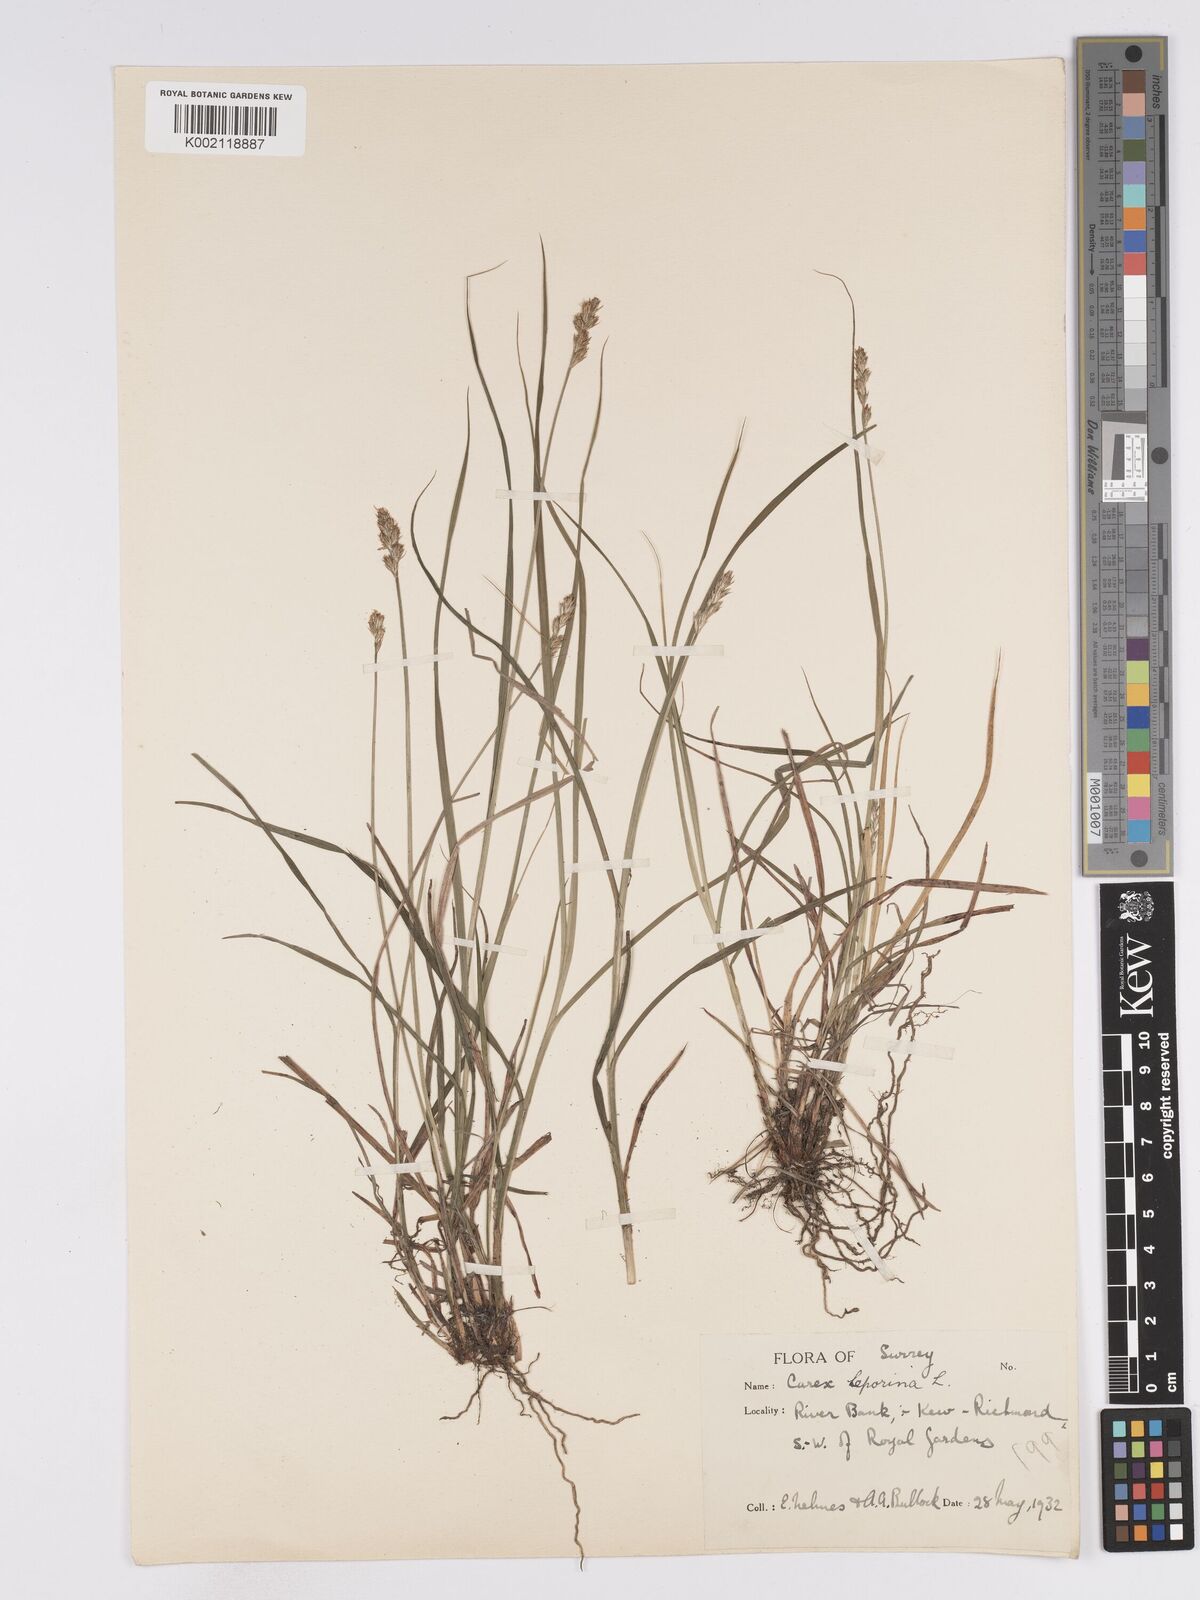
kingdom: Plantae
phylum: Tracheophyta
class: Liliopsida
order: Poales
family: Cyperaceae
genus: Carex
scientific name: Carex leporina
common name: Oval sedge
